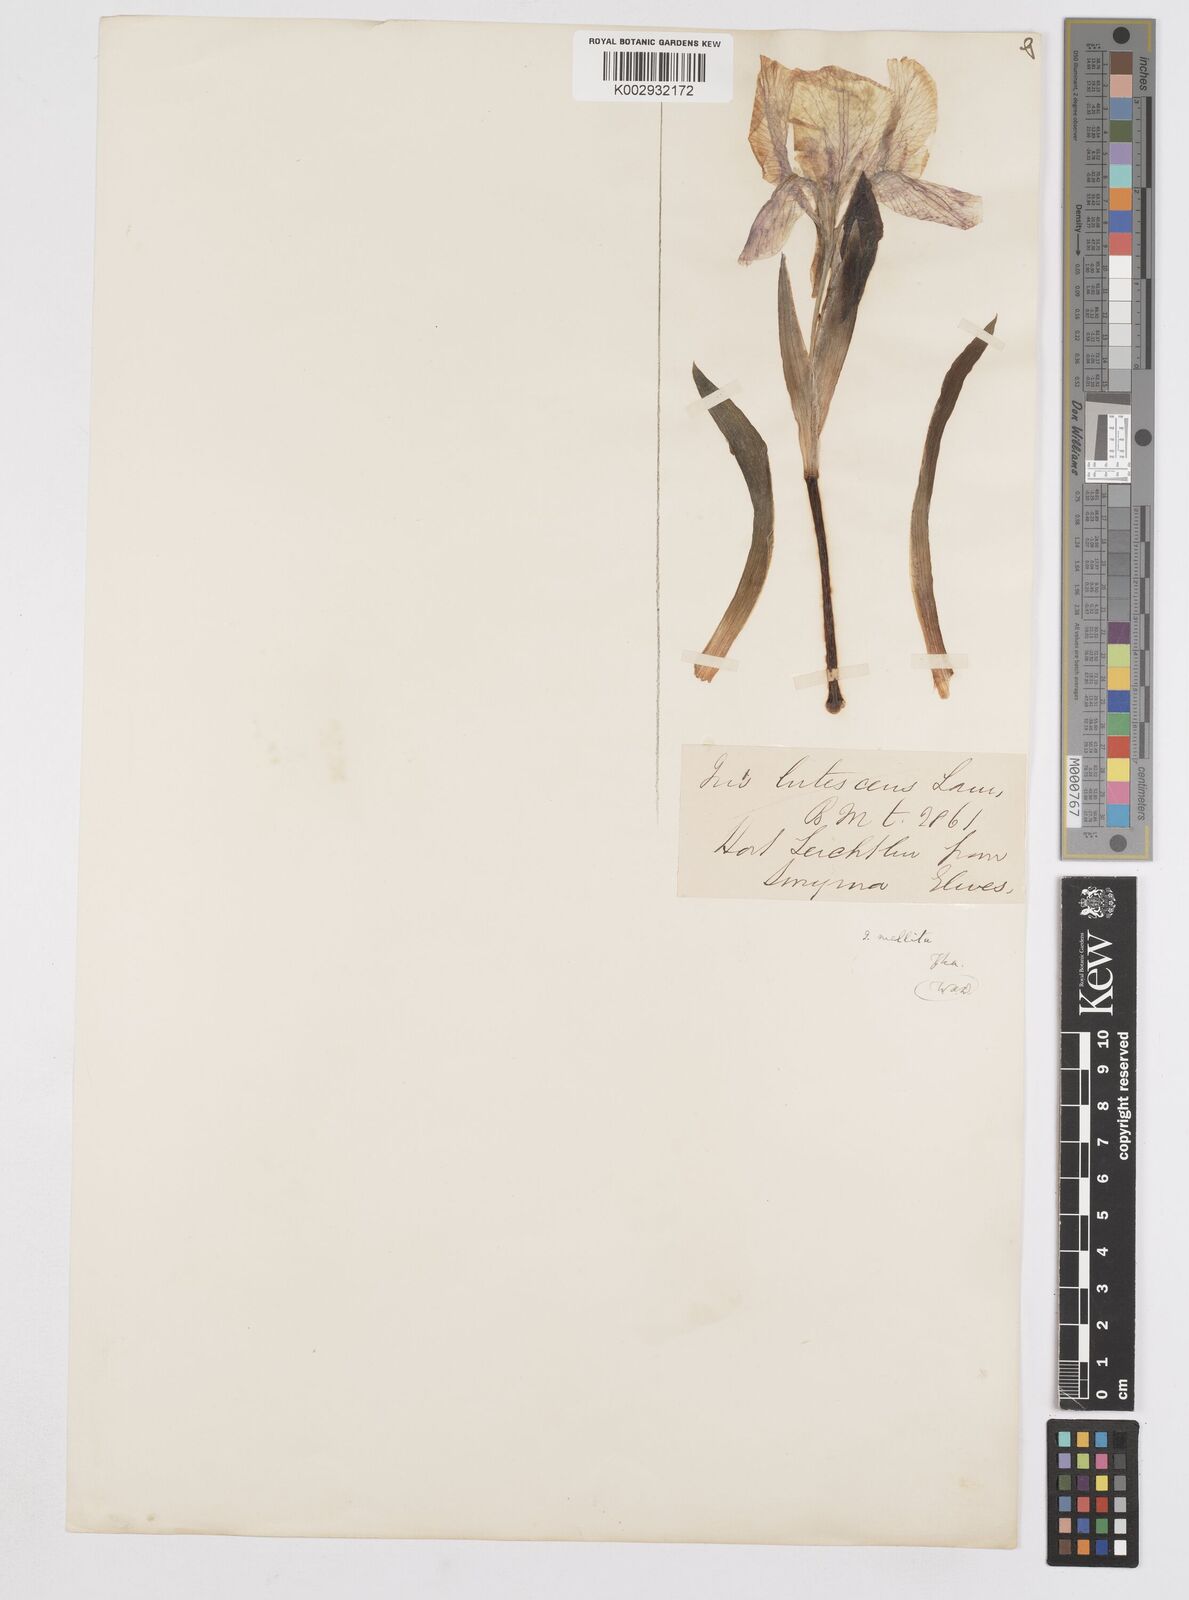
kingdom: Plantae
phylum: Tracheophyta
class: Liliopsida
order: Asparagales
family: Iridaceae
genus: Iris
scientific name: Iris suaveolens
